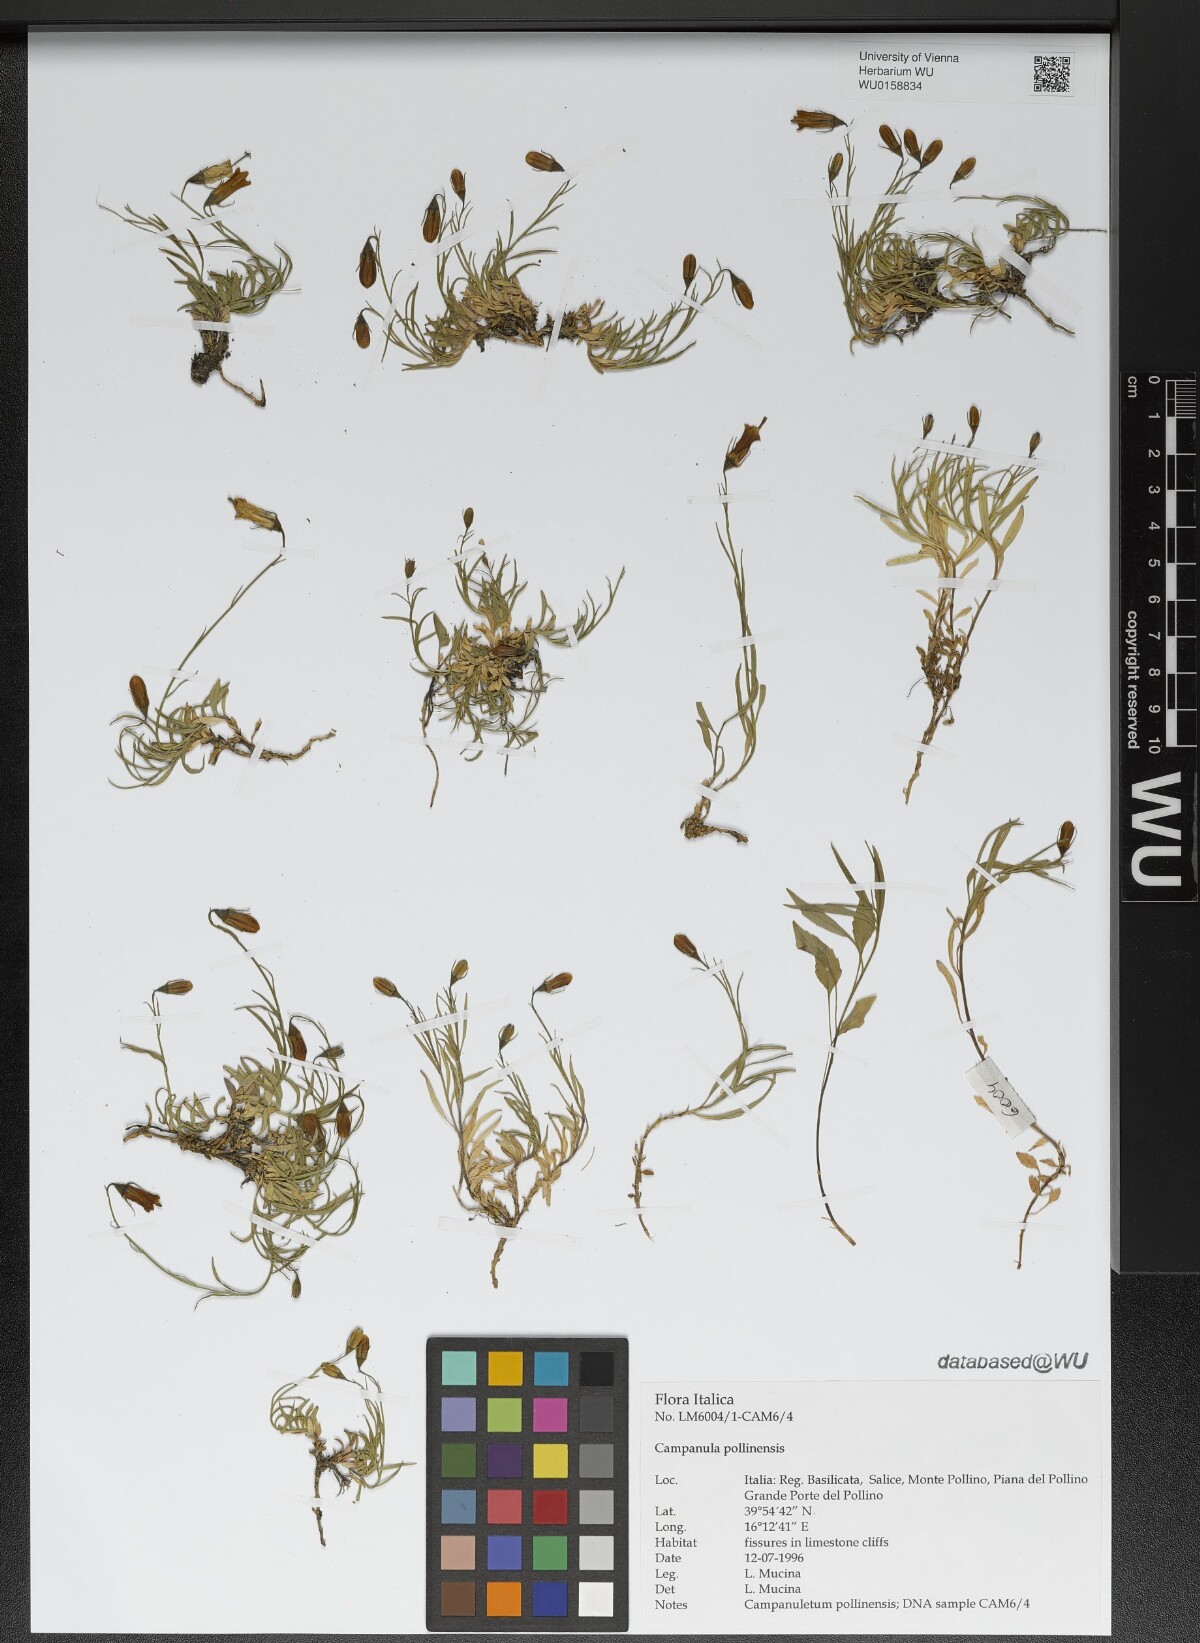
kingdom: Plantae
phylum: Tracheophyta
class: Magnoliopsida
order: Asterales
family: Campanulaceae
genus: Campanula
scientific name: Campanula pollinensis
